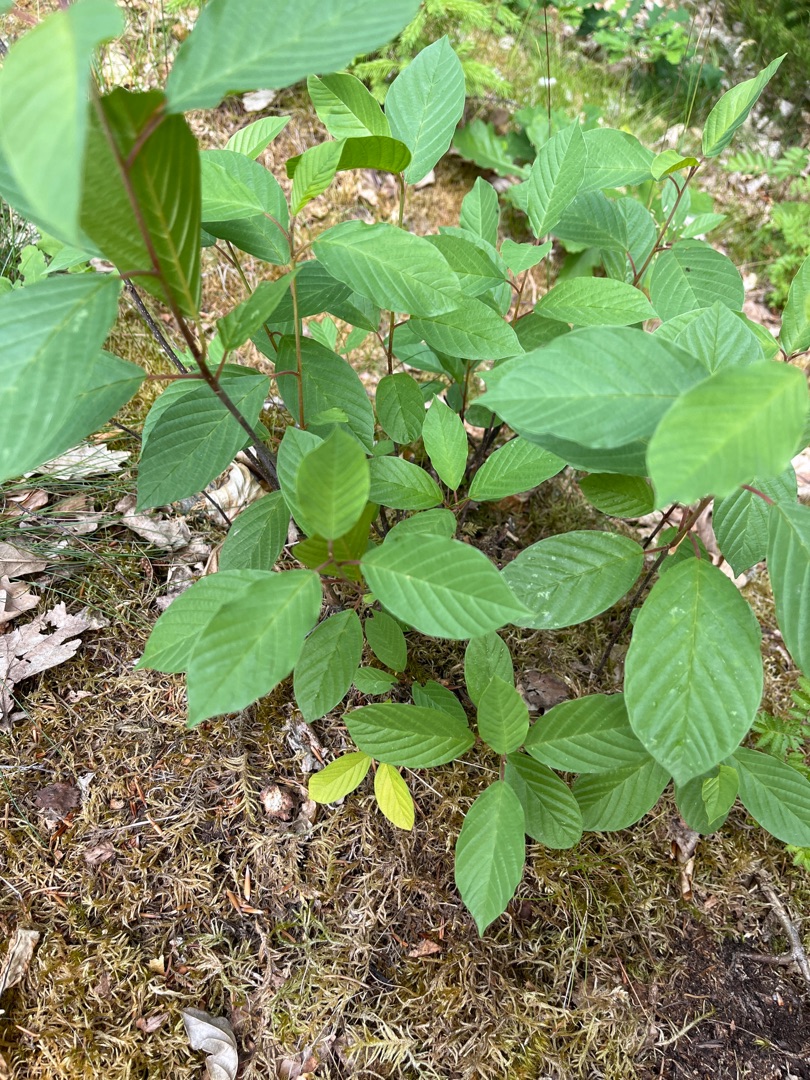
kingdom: Plantae
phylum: Tracheophyta
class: Magnoliopsida
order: Rosales
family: Rhamnaceae
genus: Frangula
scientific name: Frangula alnus
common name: Tørst
